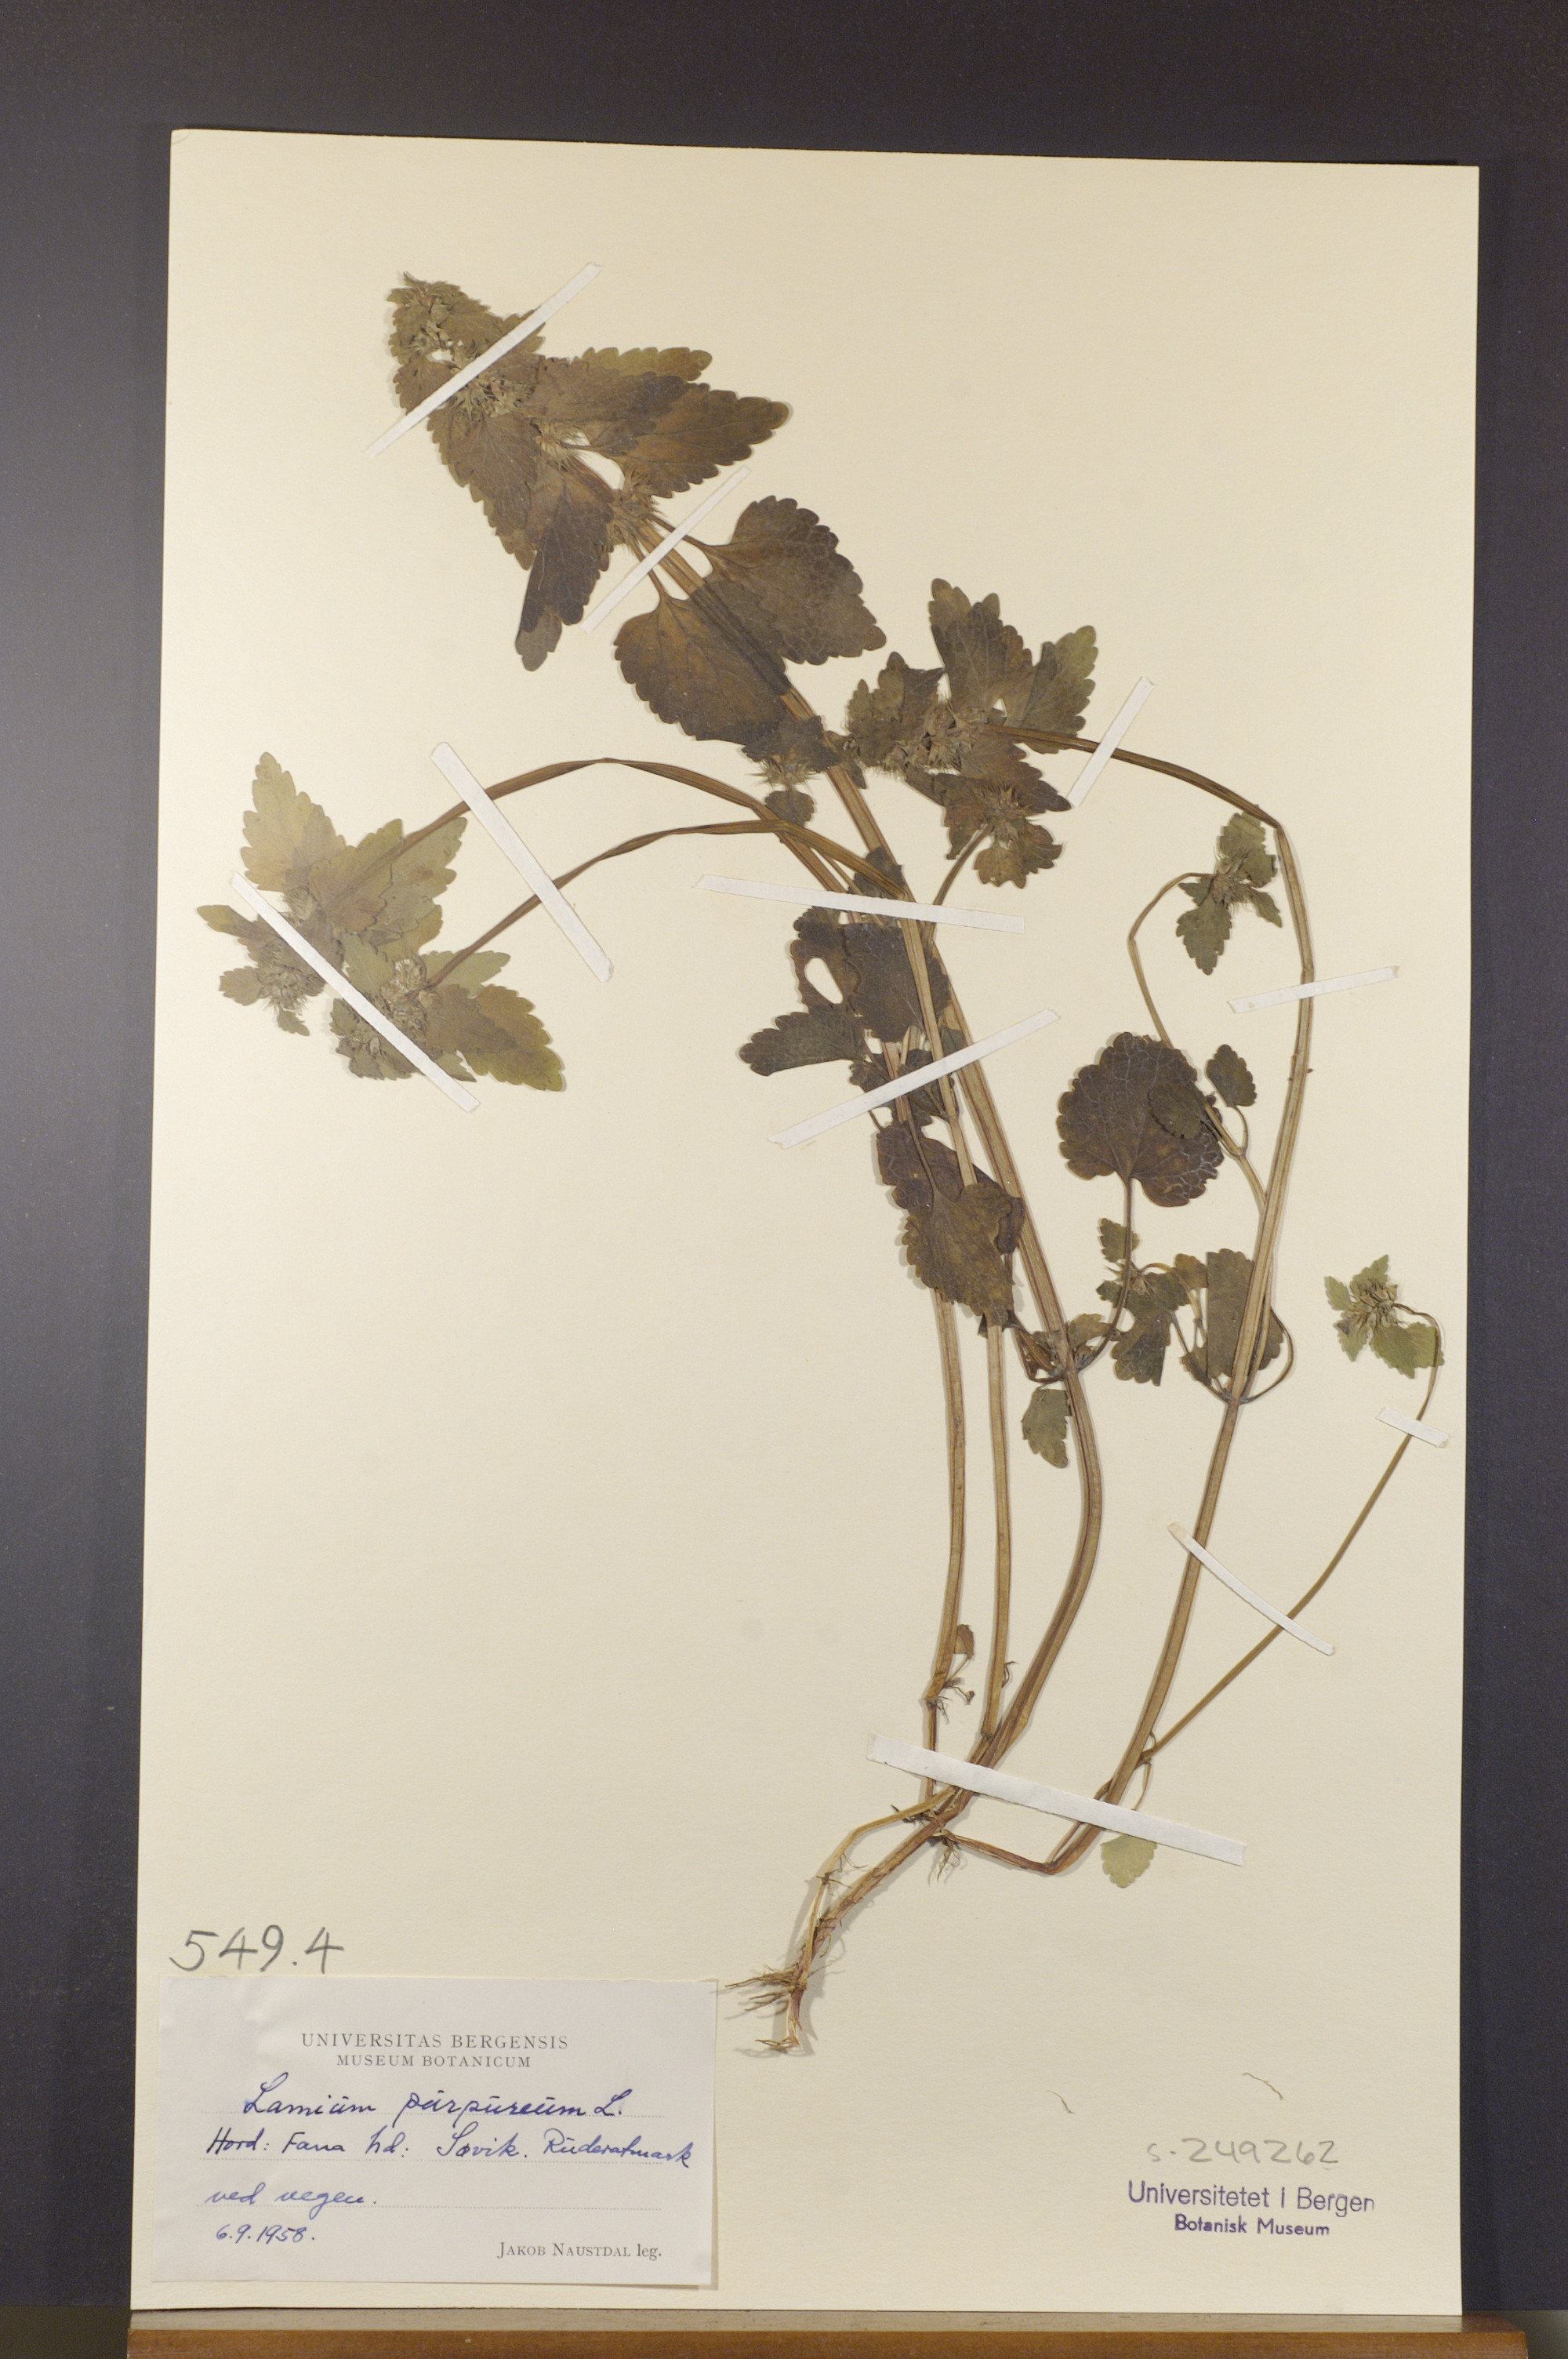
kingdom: Plantae
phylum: Tracheophyta
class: Magnoliopsida
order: Lamiales
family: Lamiaceae
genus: Lamium
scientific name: Lamium purpureum
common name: Red dead-nettle
